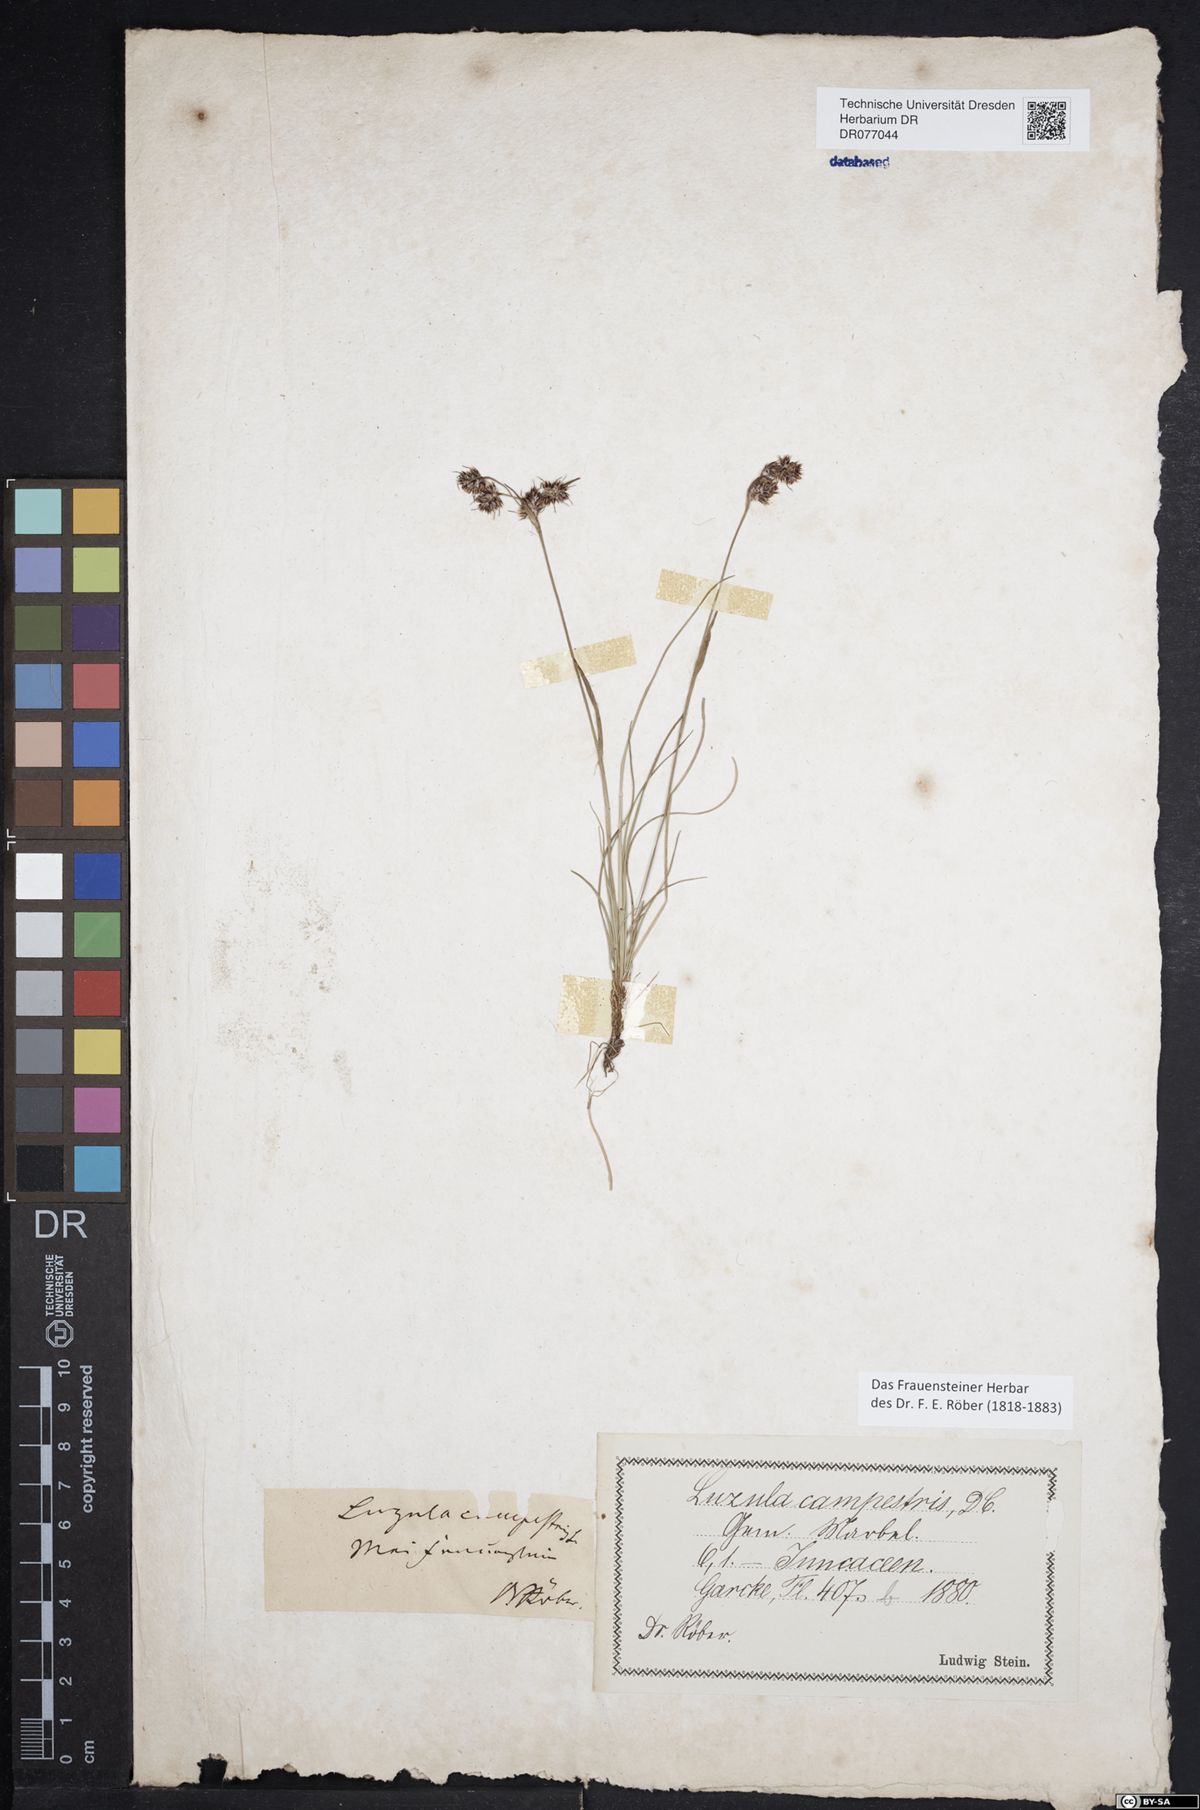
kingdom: Plantae
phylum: Tracheophyta
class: Liliopsida
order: Poales
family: Juncaceae
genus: Luzula
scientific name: Luzula campestris
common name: Field wood-rush
